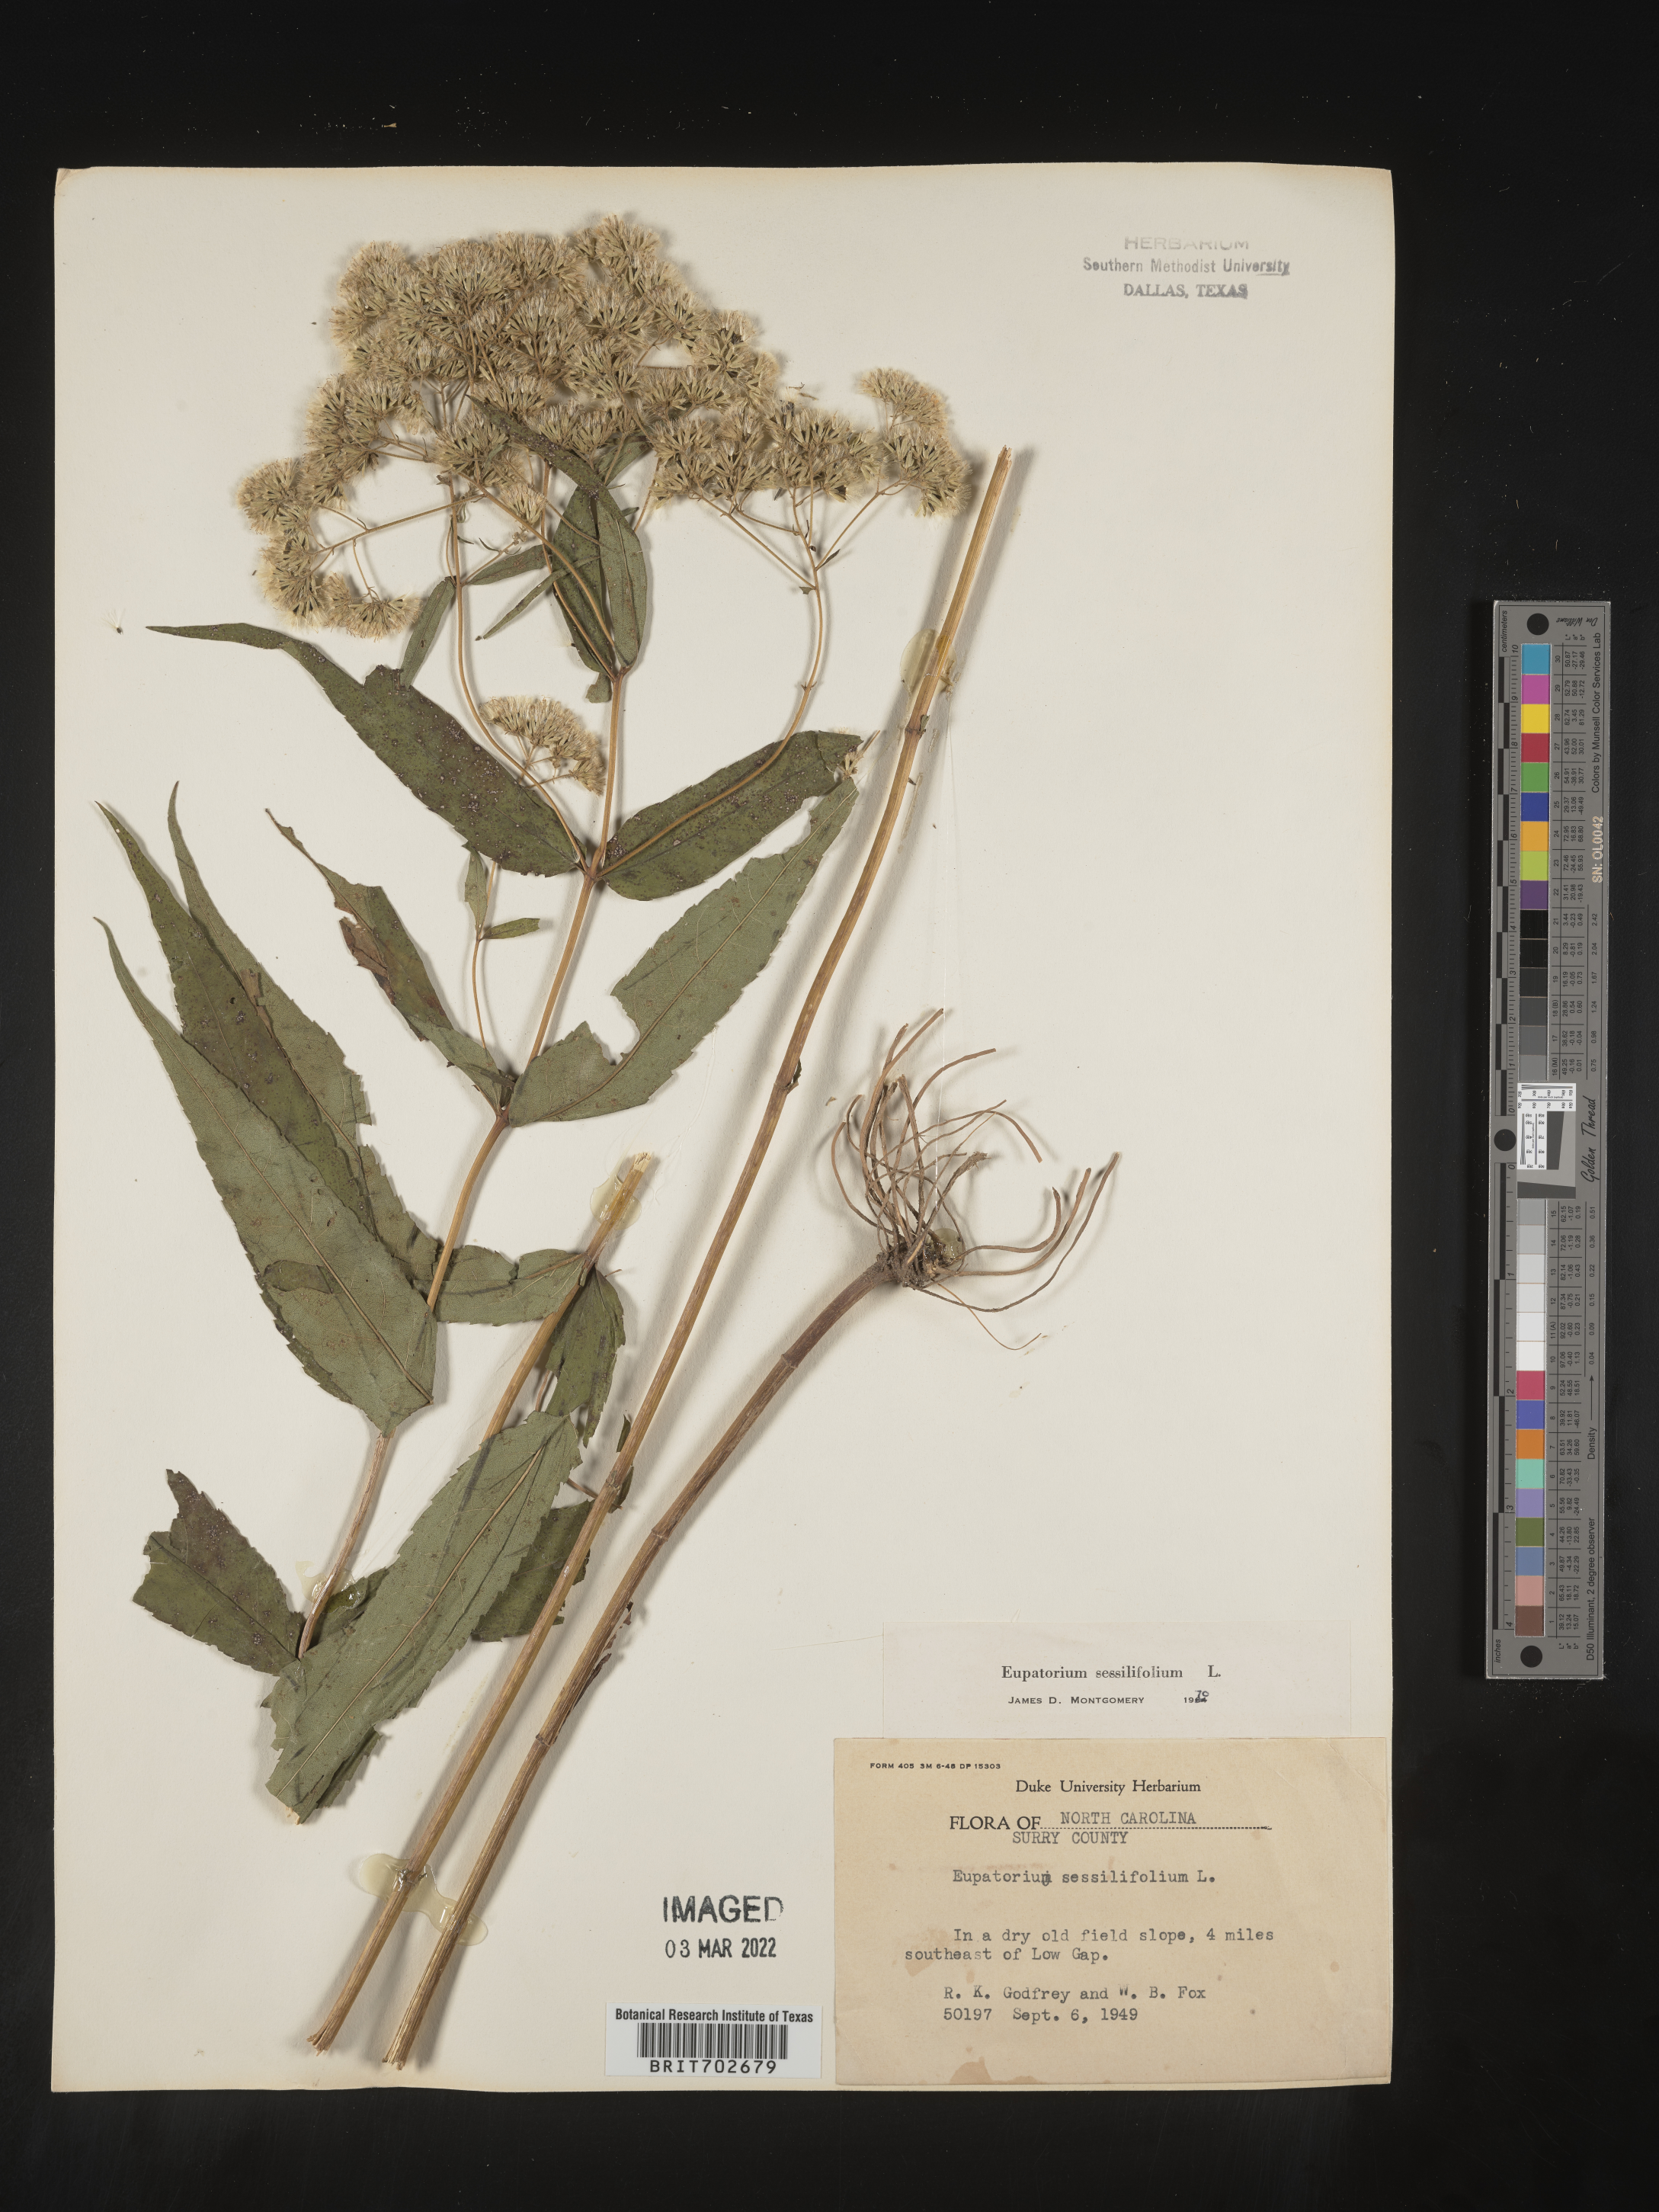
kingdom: Plantae
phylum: Tracheophyta
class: Magnoliopsida
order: Asterales
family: Asteraceae
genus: Eupatorium
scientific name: Eupatorium sessilifolium
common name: Upland boneset
